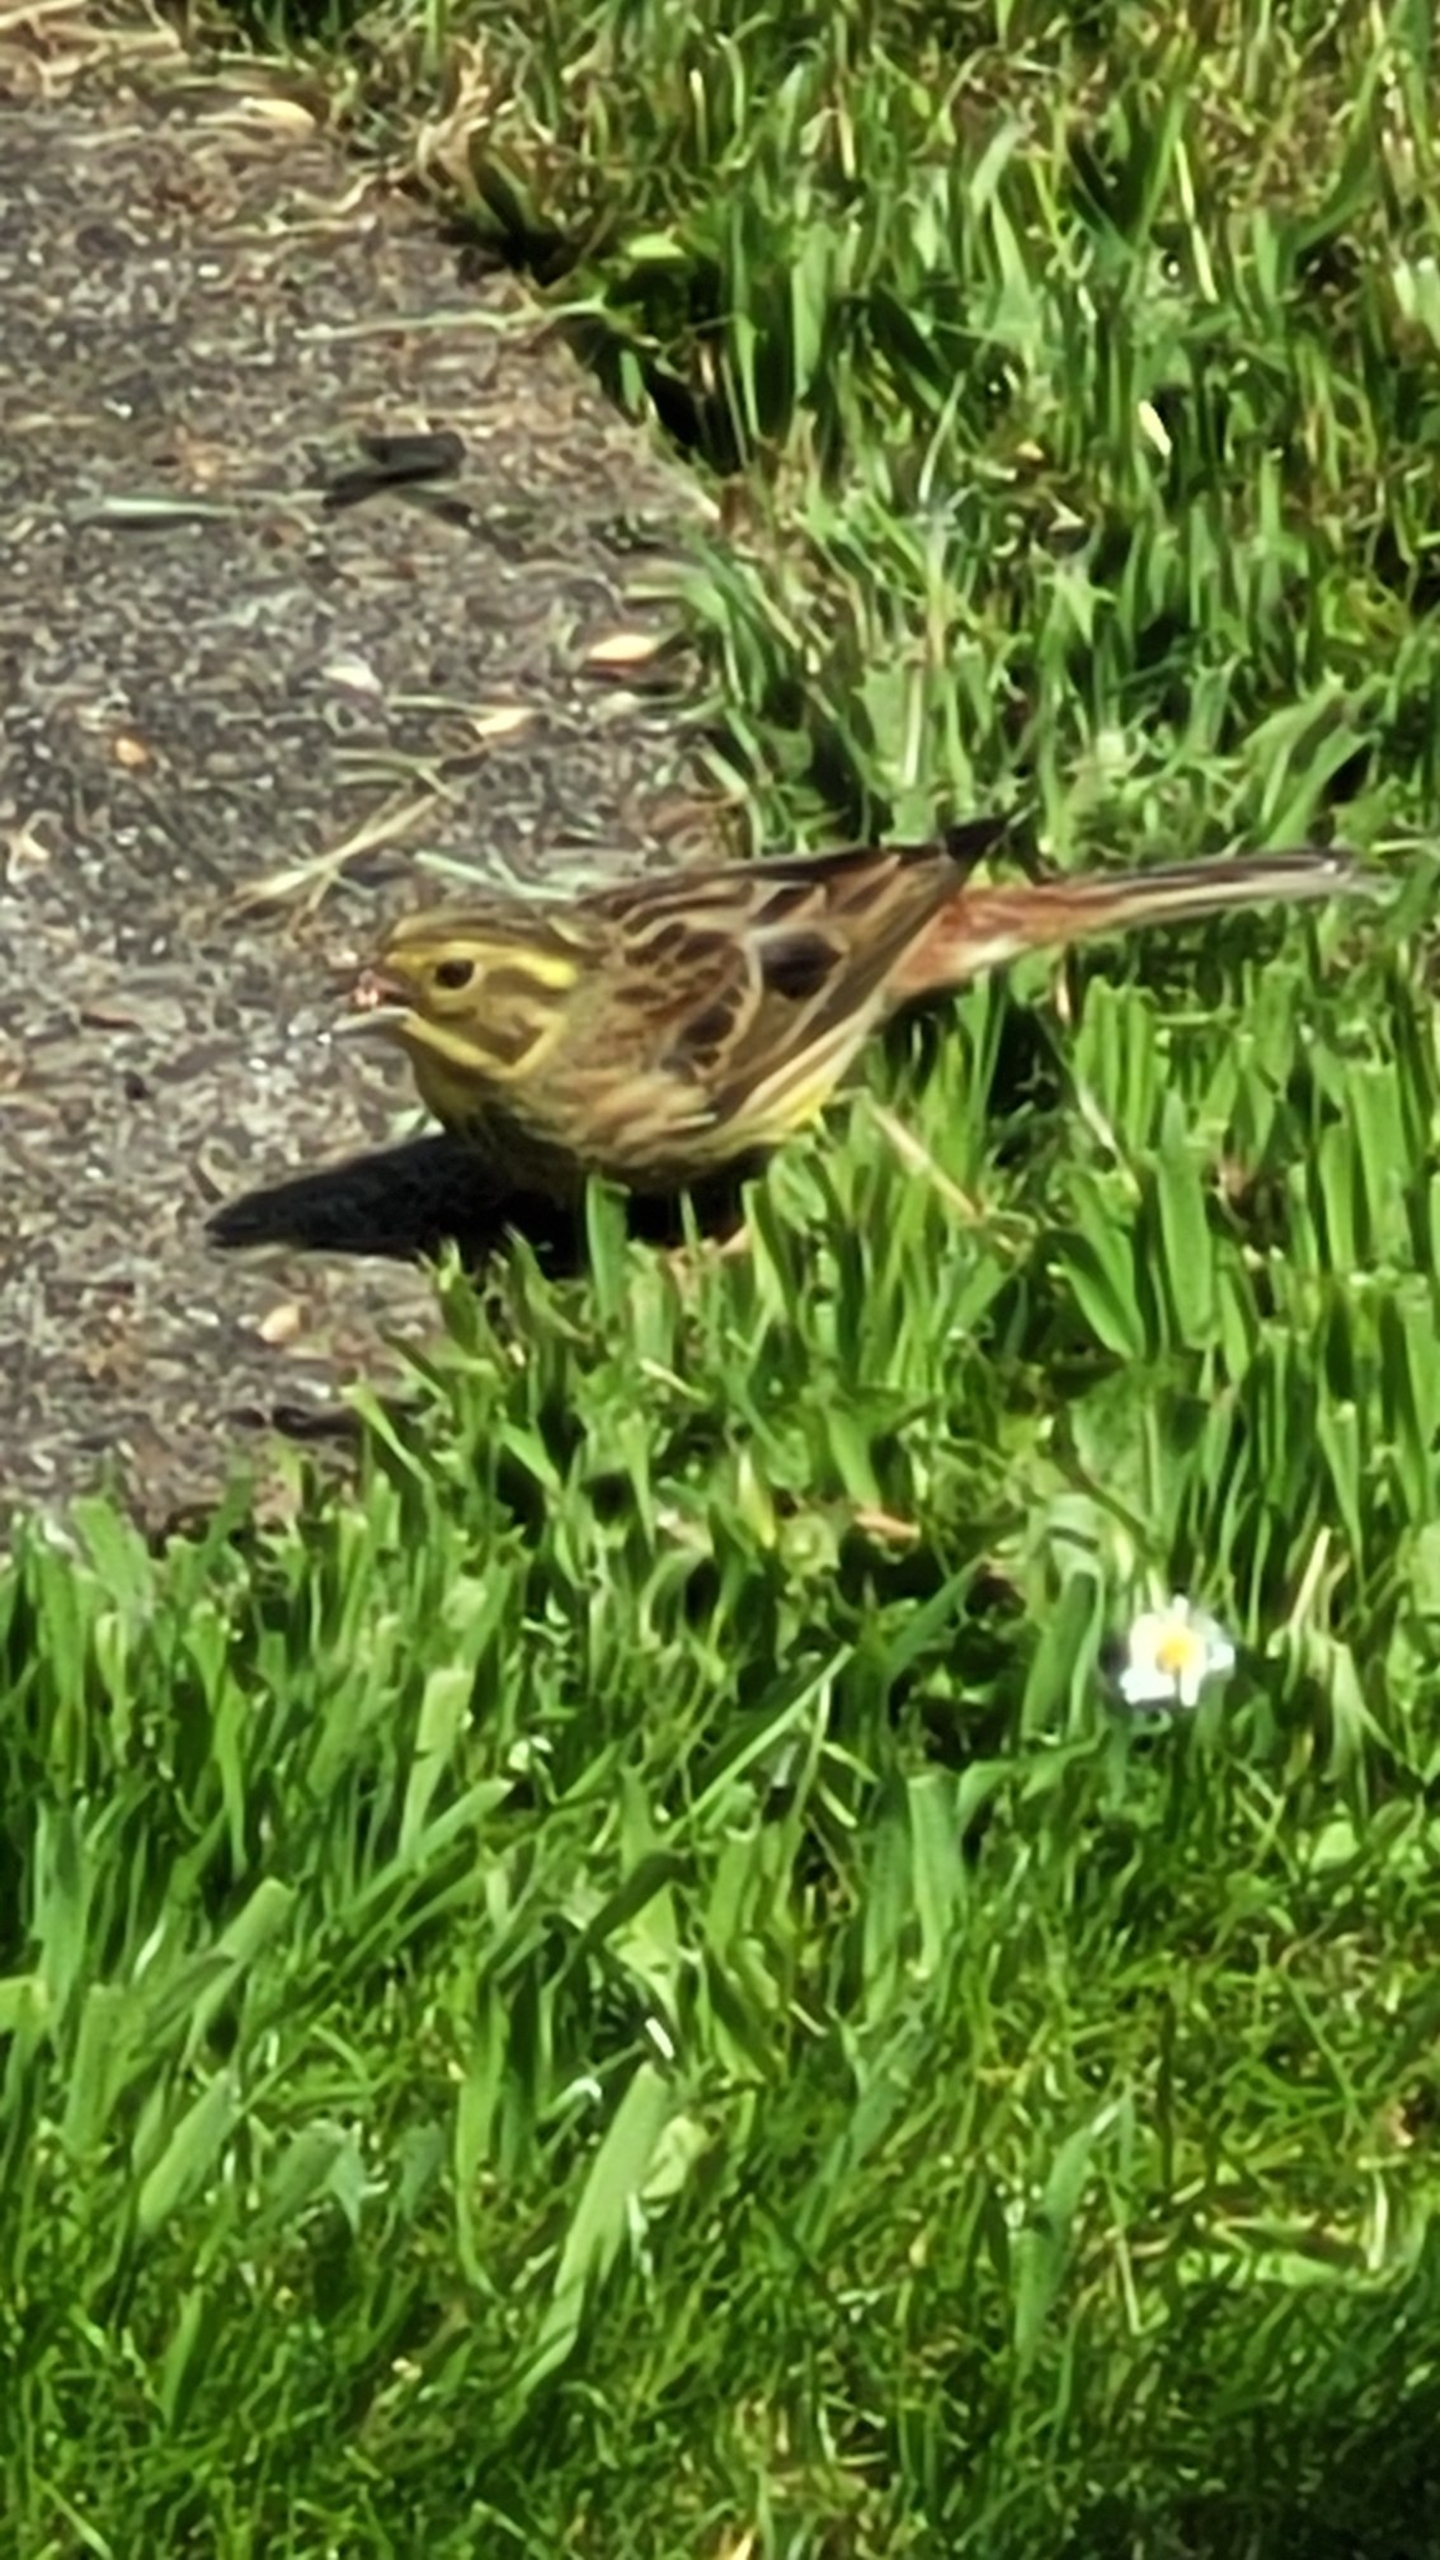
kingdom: Animalia
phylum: Chordata
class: Aves
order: Passeriformes
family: Emberizidae
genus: Emberiza
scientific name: Emberiza citrinella
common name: Gulspurv
